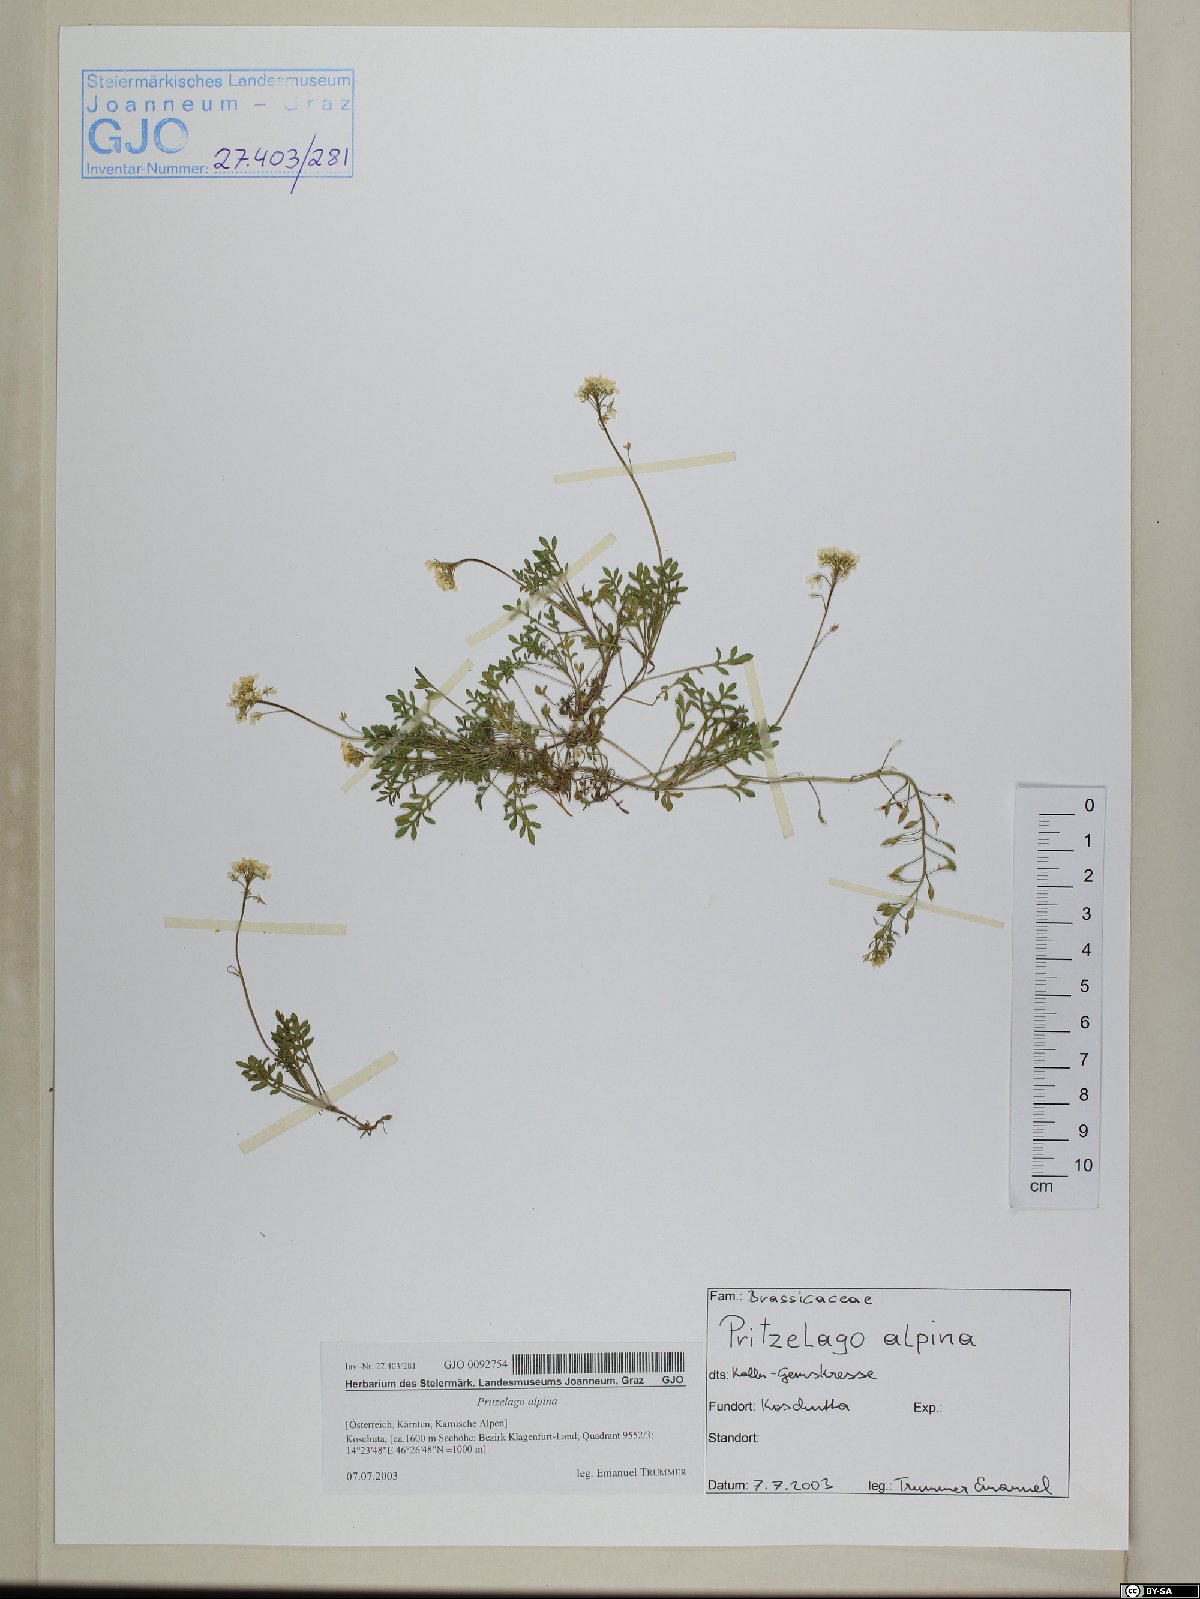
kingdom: Plantae
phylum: Tracheophyta
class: Magnoliopsida
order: Brassicales
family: Brassicaceae
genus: Hornungia
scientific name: Hornungia alpina
